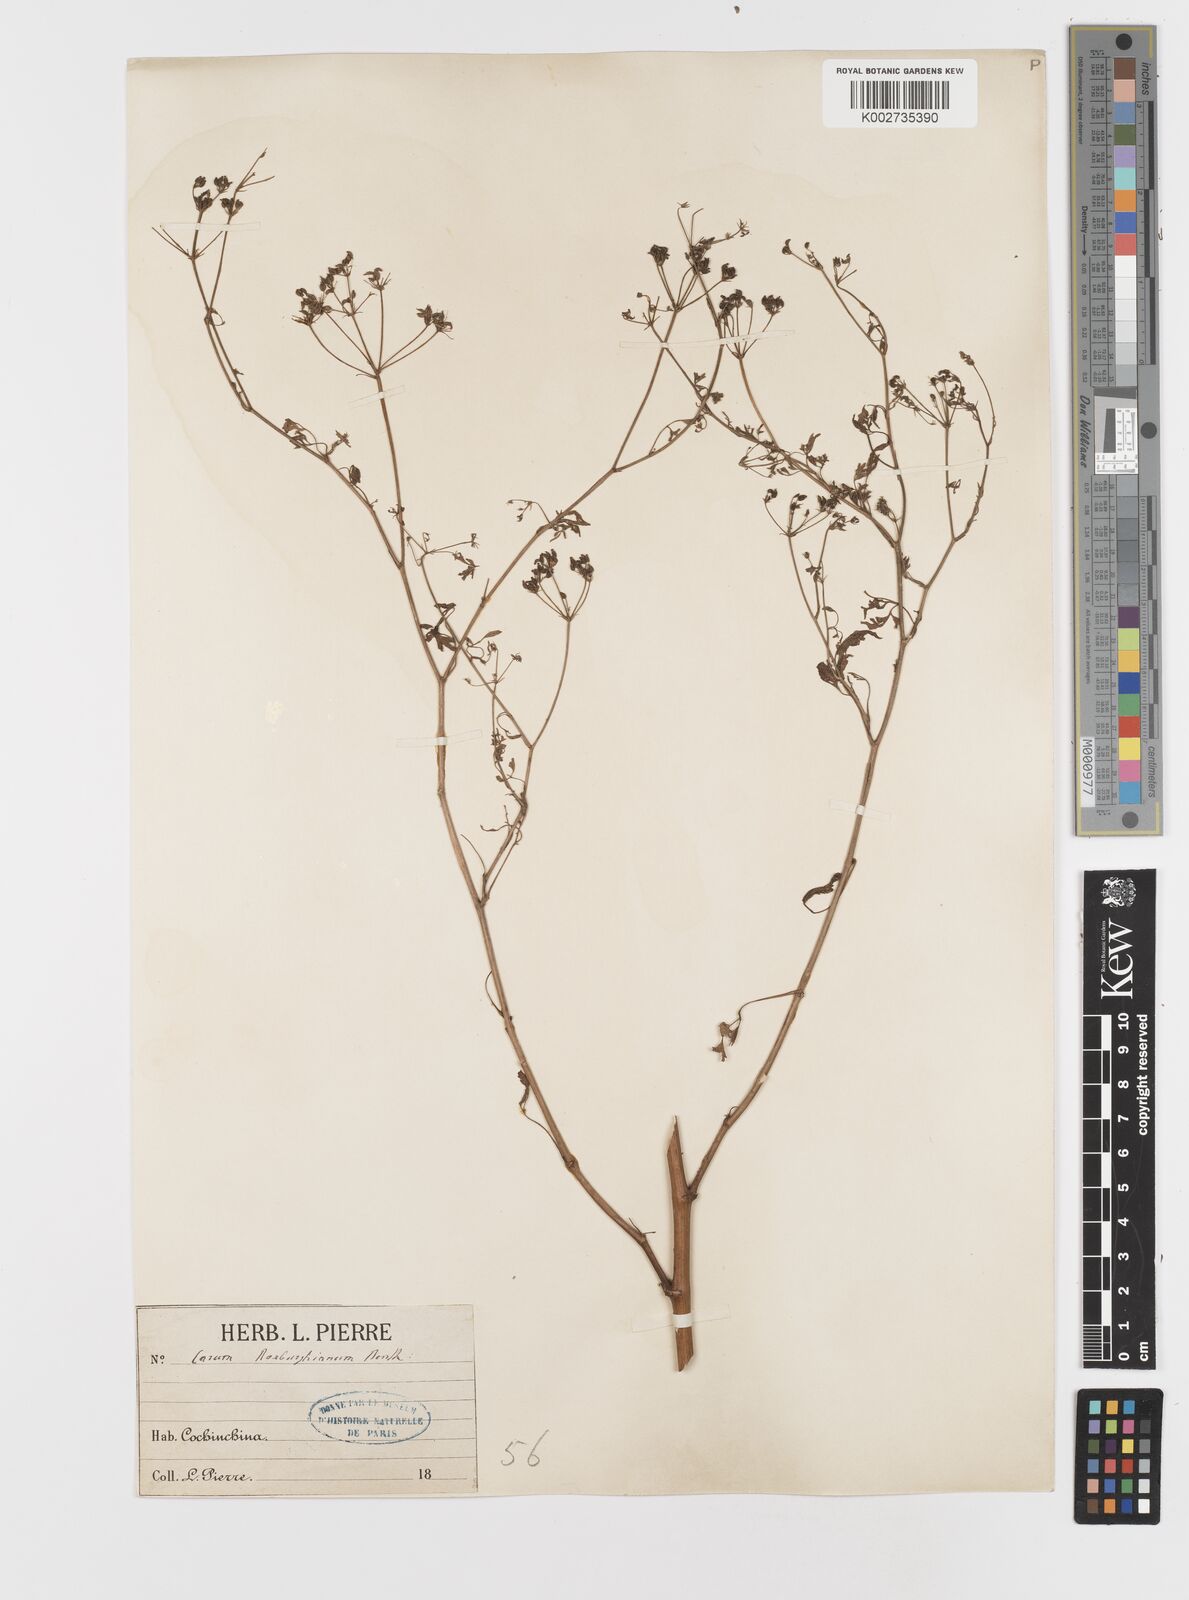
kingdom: Plantae
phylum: Tracheophyta
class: Magnoliopsida
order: Apiales
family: Apiaceae
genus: Psammogeton
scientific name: Psammogeton involucratum
